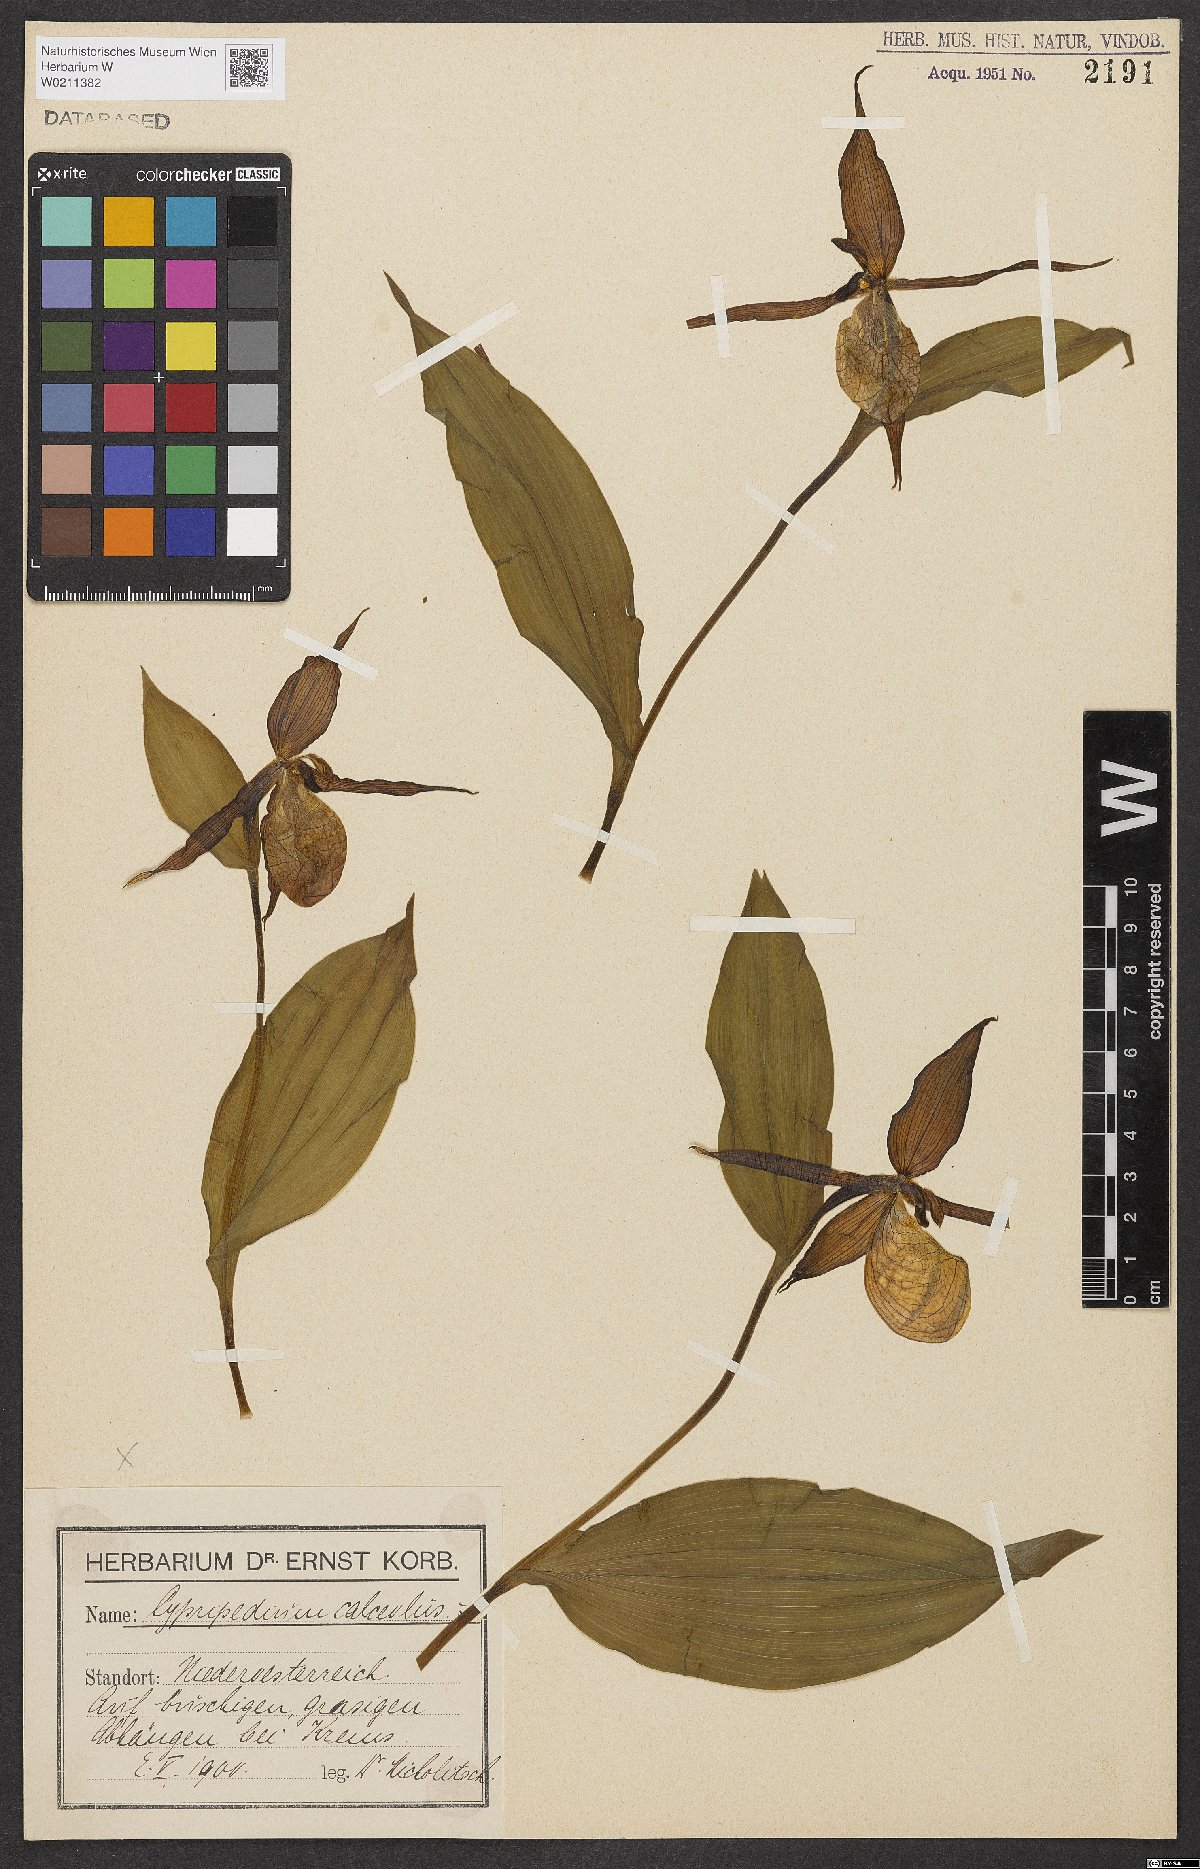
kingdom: Plantae
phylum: Tracheophyta
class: Liliopsida
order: Asparagales
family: Orchidaceae
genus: Cypripedium
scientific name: Cypripedium calceolus
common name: Lady's-slipper
